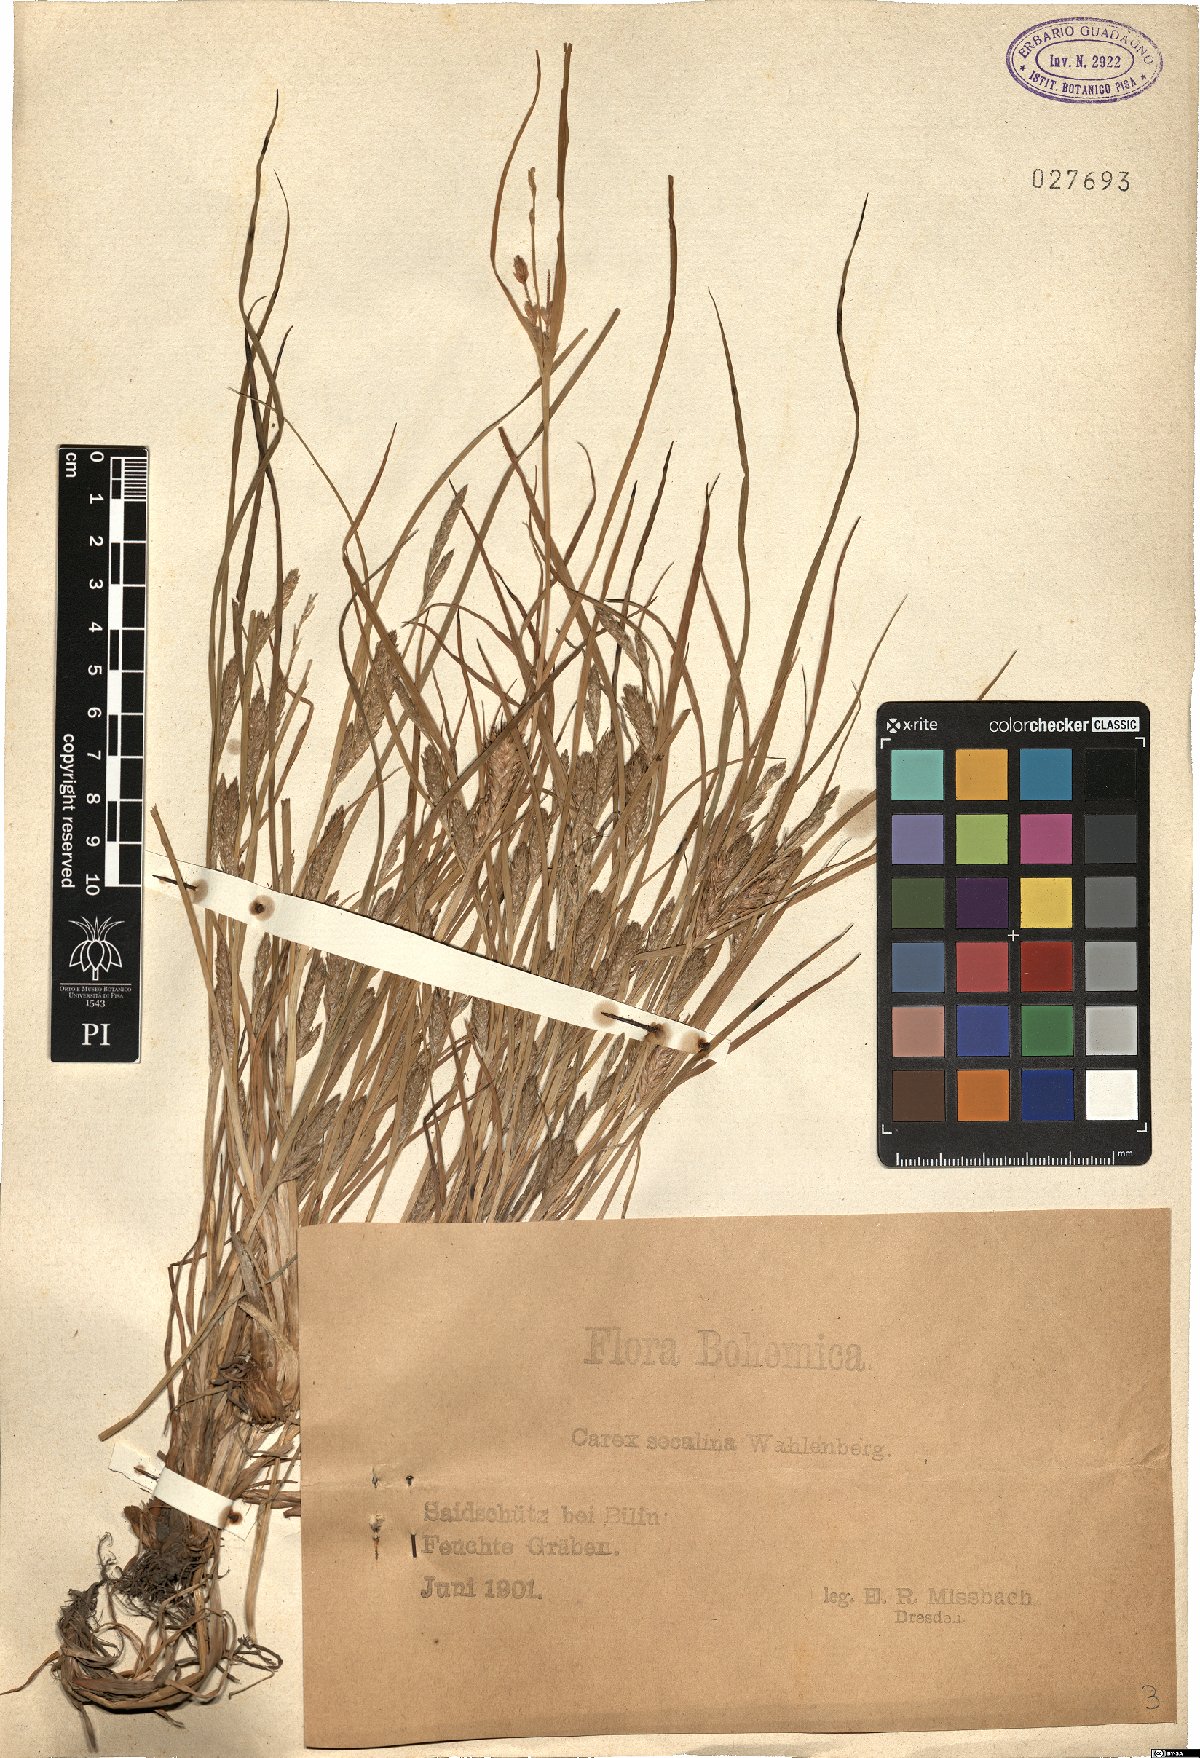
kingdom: Plantae
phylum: Tracheophyta
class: Liliopsida
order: Poales
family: Cyperaceae
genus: Carex
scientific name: Carex secalina
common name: Rye sedge
